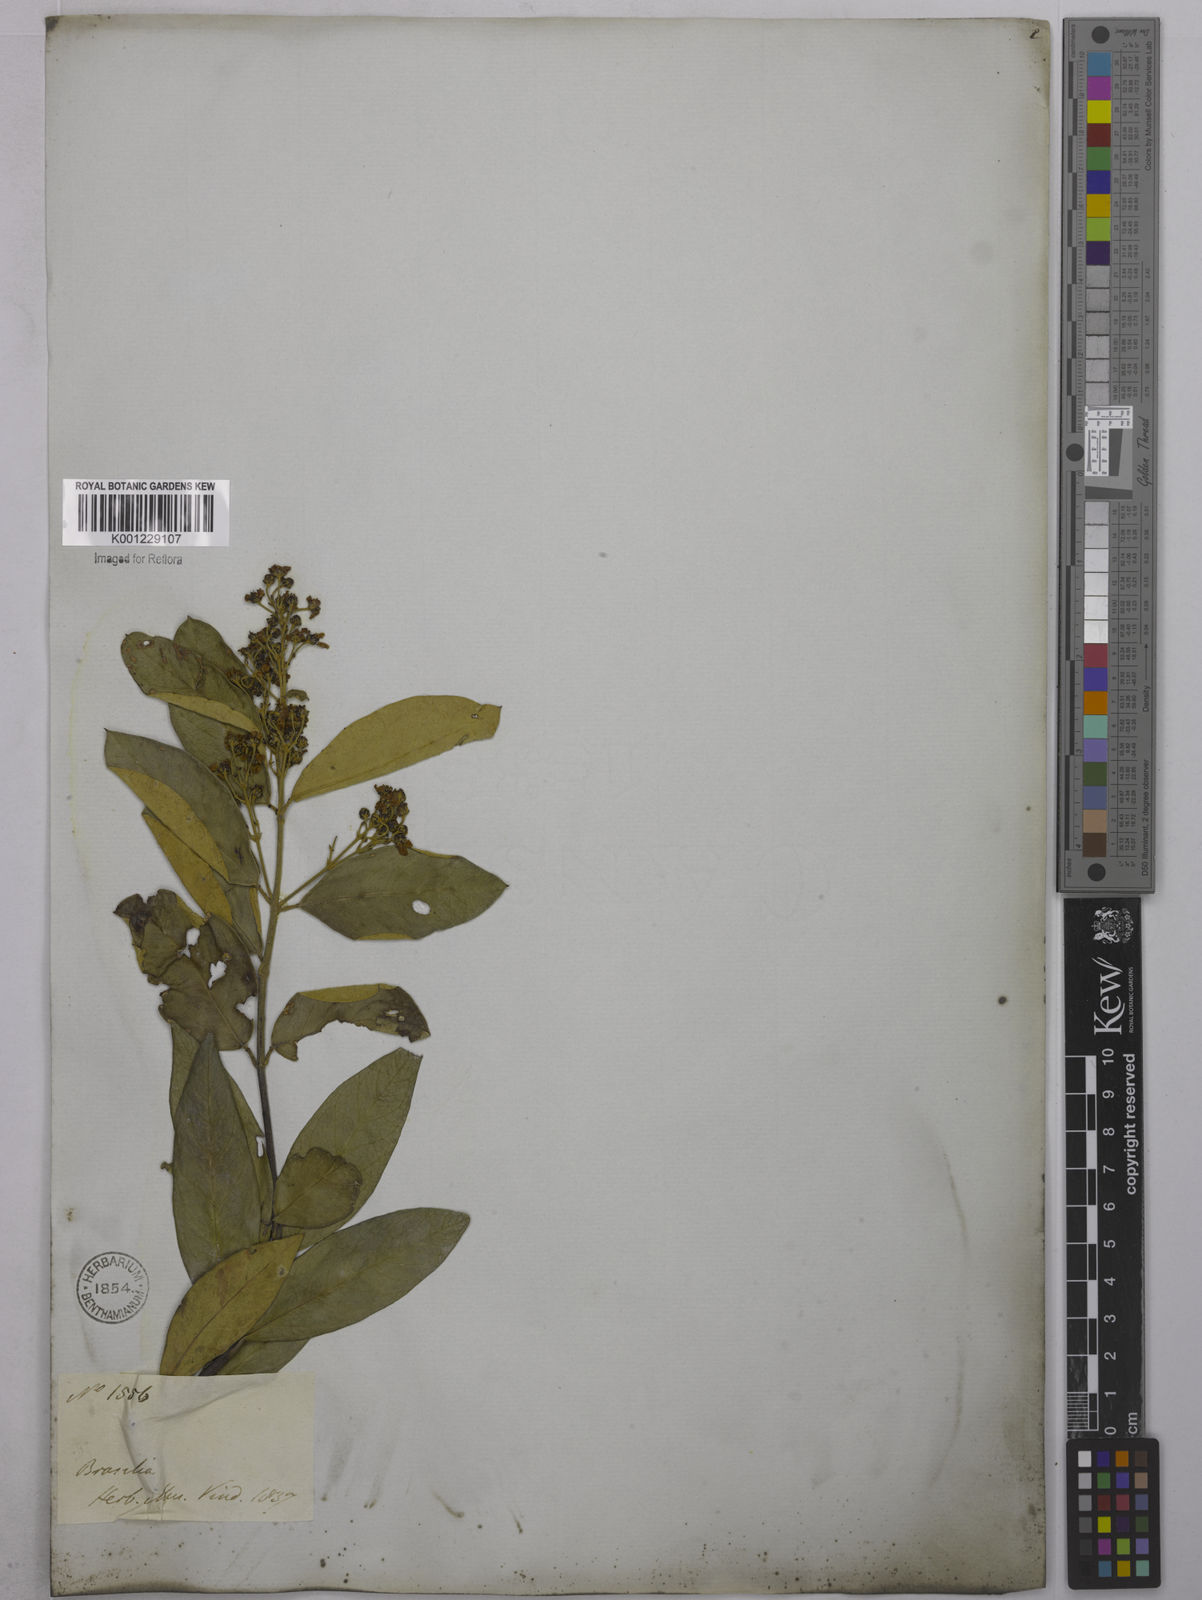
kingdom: Plantae
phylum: Tracheophyta
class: Magnoliopsida
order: Malpighiales
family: Malpighiaceae
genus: Niedenzuella
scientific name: Niedenzuella sericea
